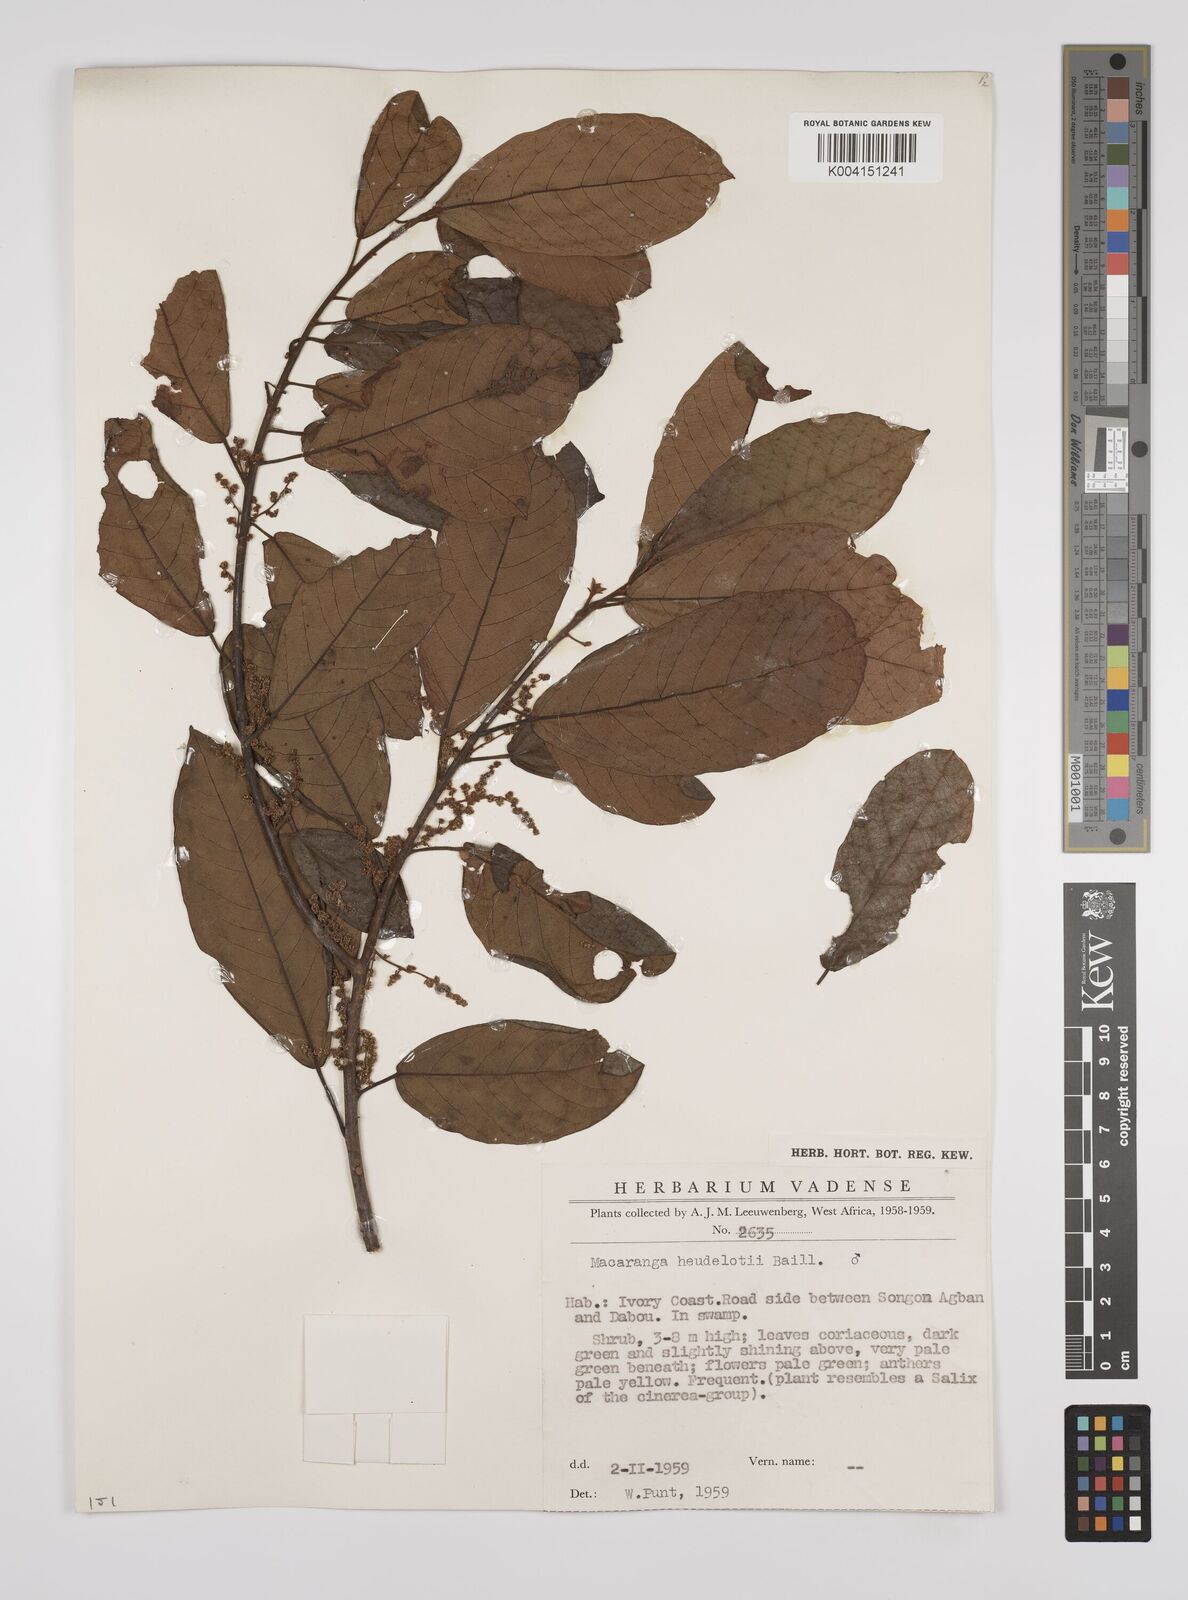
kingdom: Plantae
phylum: Tracheophyta
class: Magnoliopsida
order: Malpighiales
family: Euphorbiaceae
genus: Macaranga
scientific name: Macaranga heudelotii
